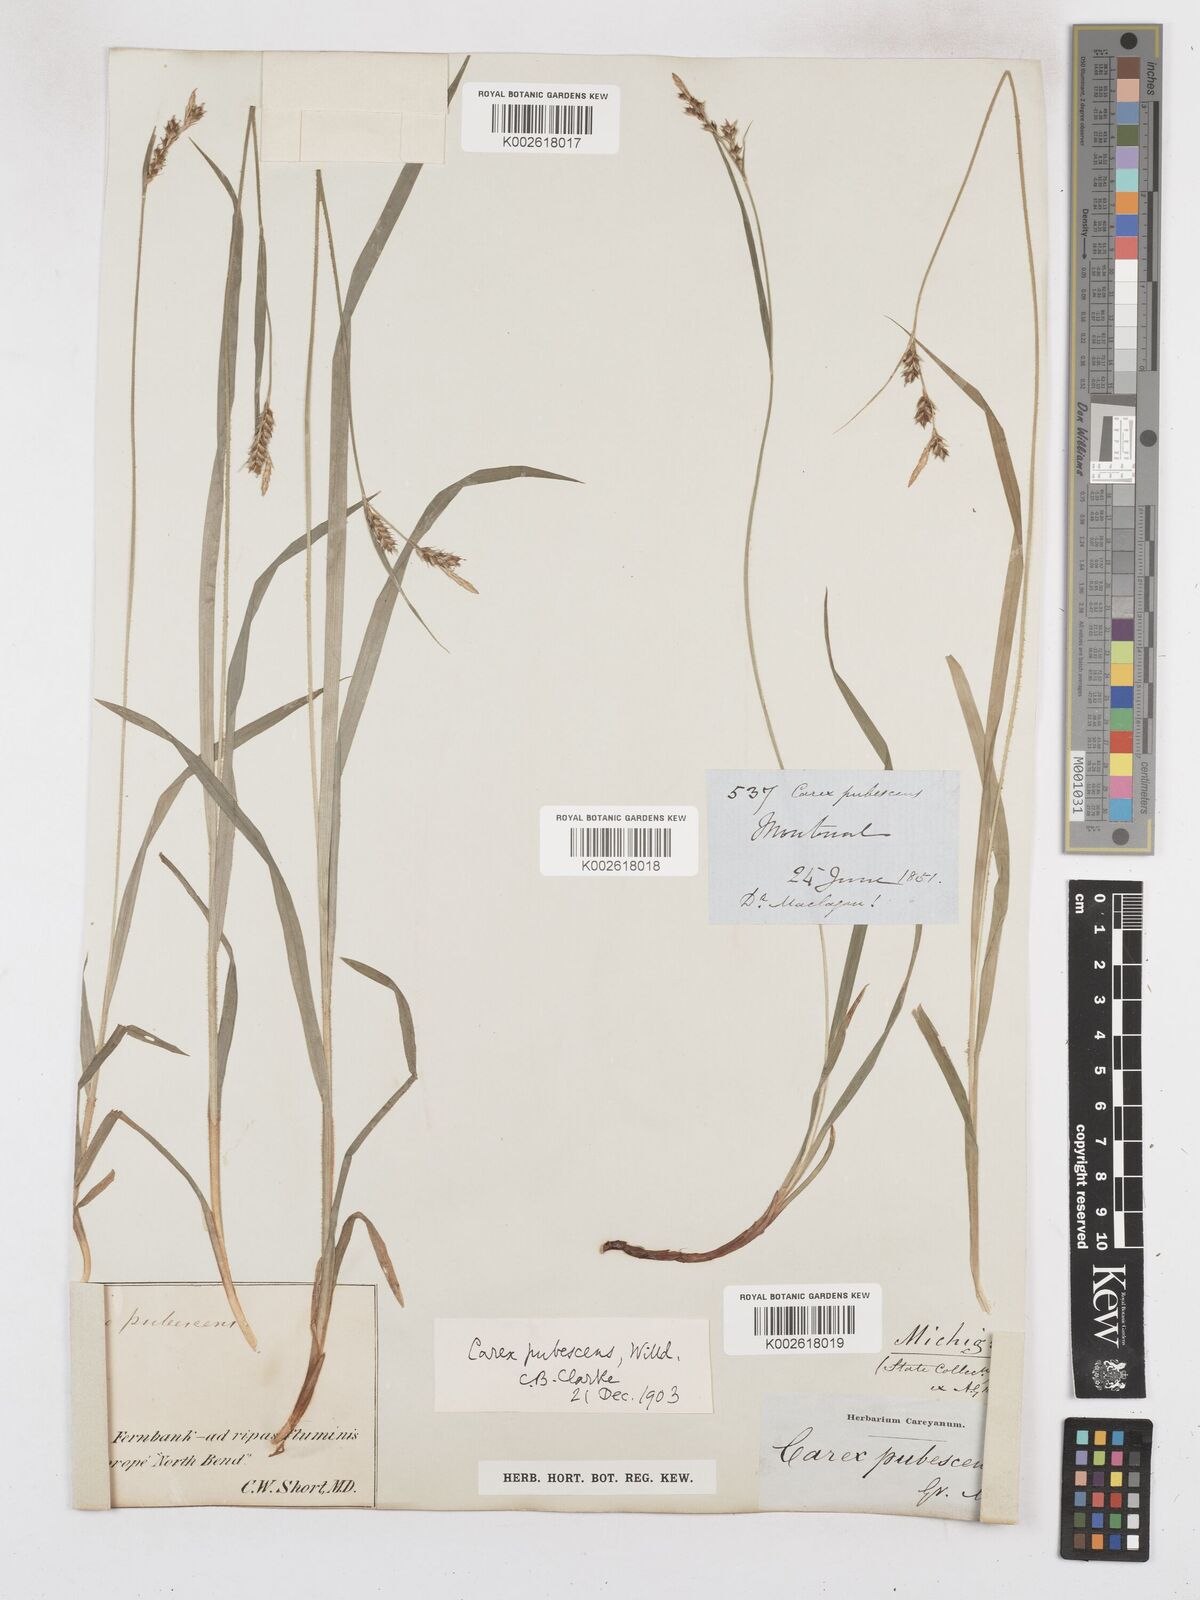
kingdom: Plantae
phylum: Tracheophyta
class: Liliopsida
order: Poales
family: Cyperaceae
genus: Carex
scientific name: Carex hirtifolia
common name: Hairy sedge
